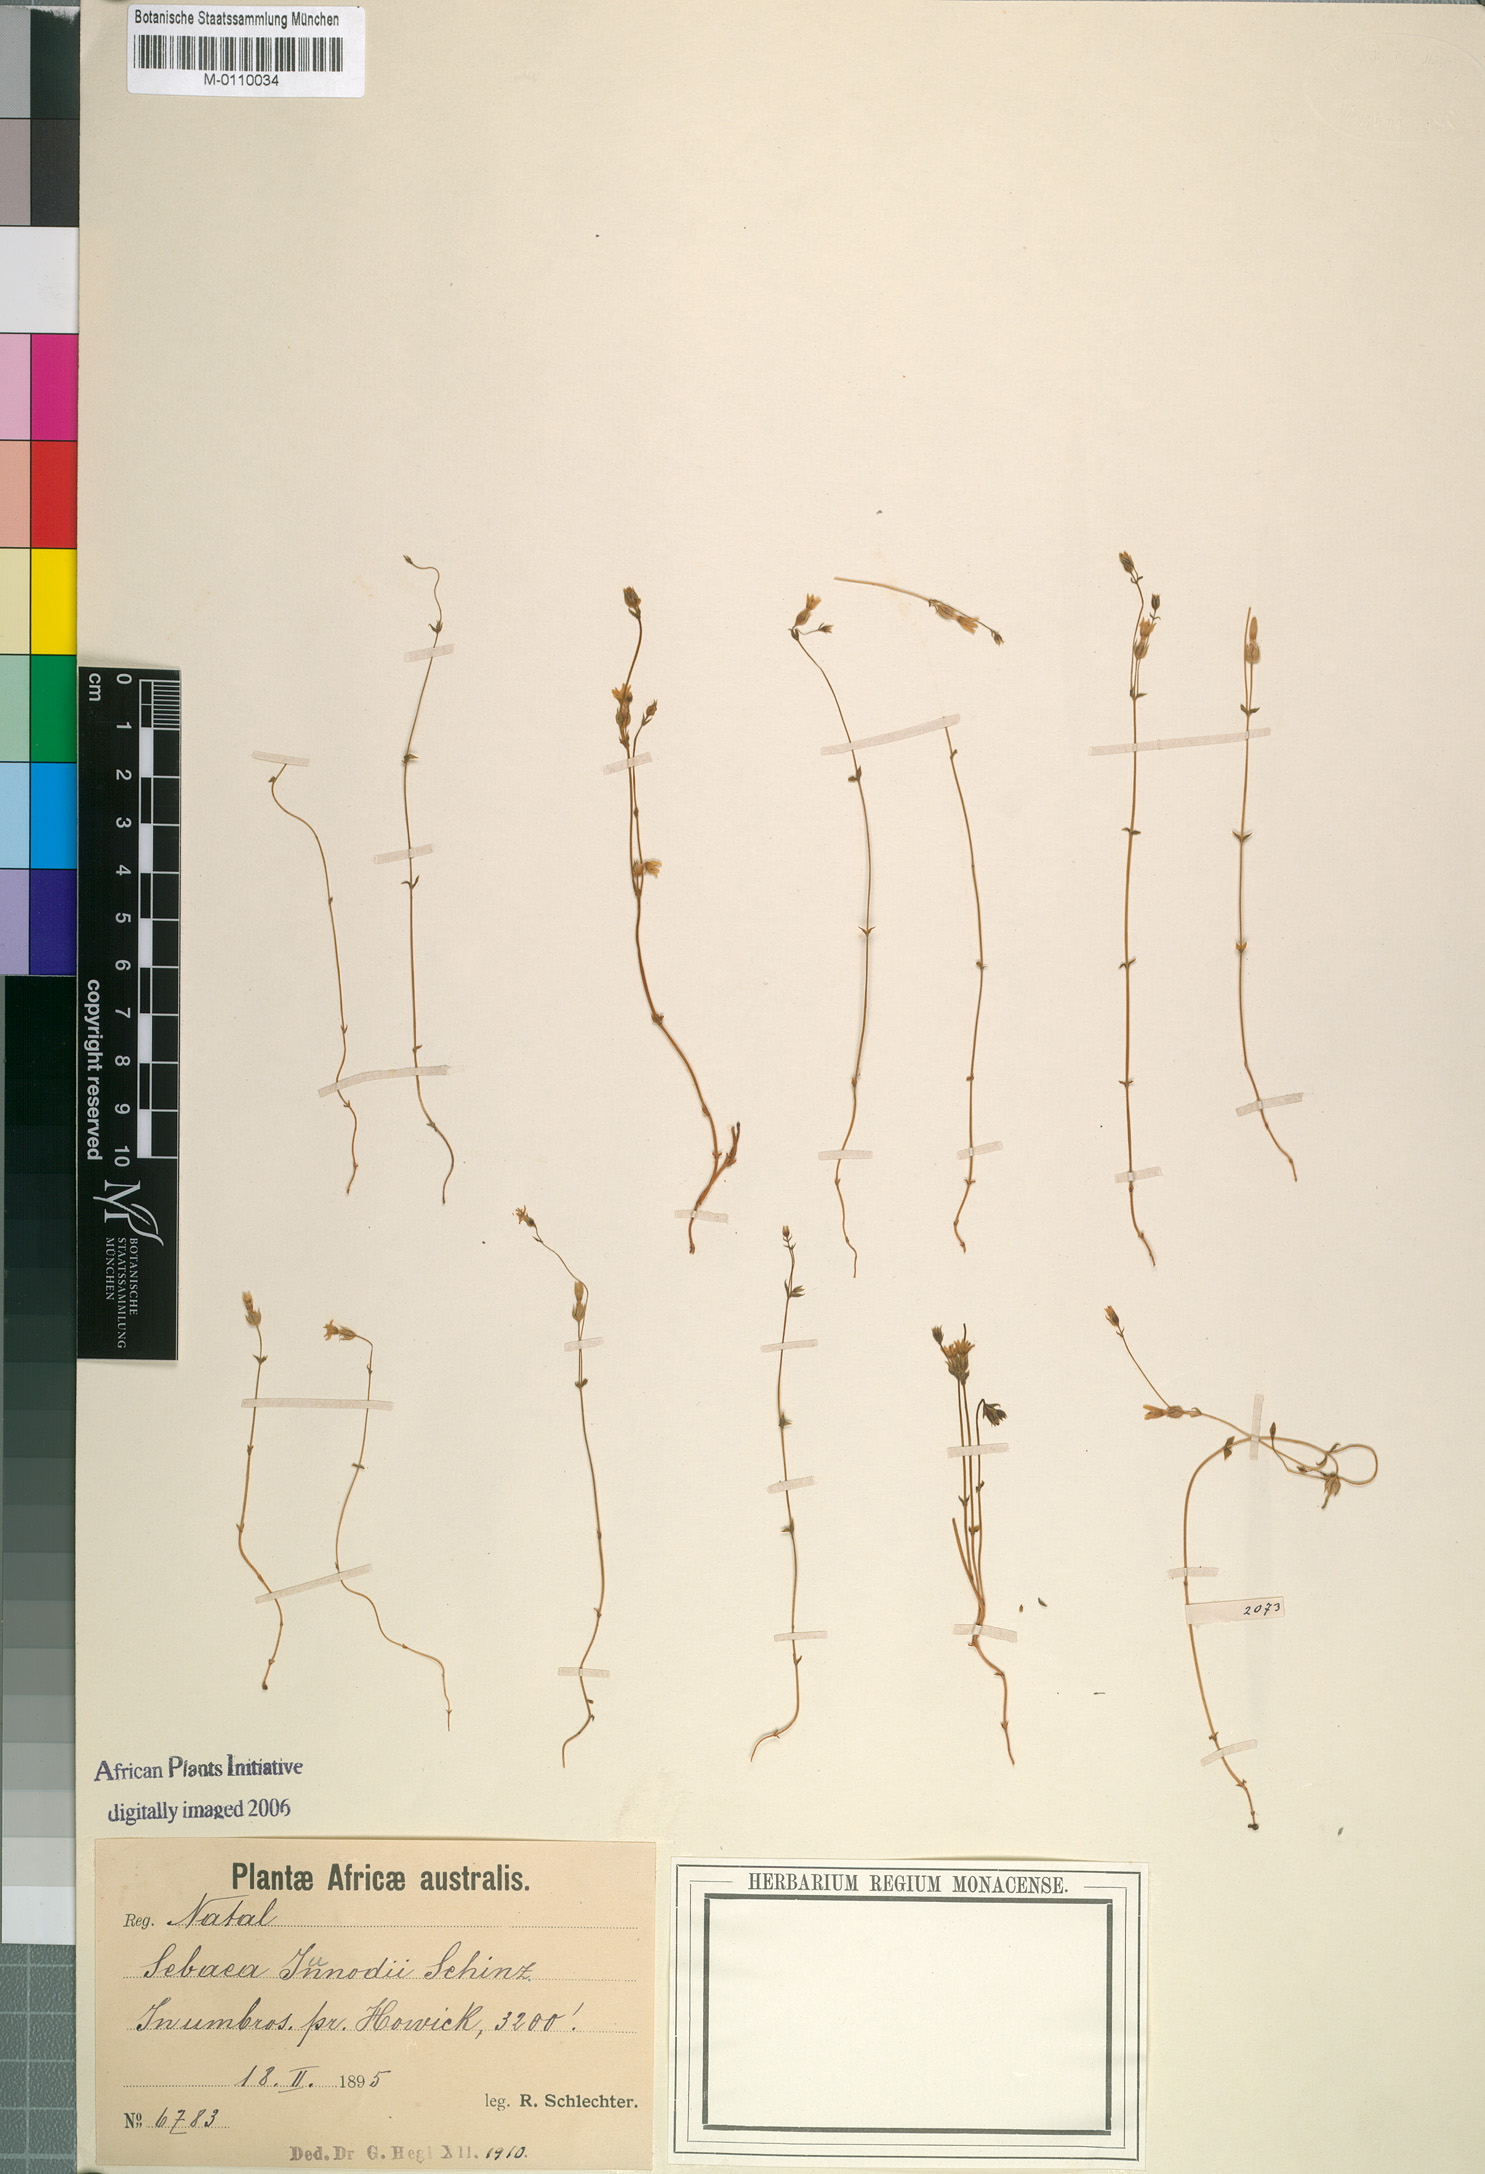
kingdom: Plantae
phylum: Tracheophyta
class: Magnoliopsida
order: Gentianales
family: Gentianaceae
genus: Sebaea
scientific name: Sebaea junodii
